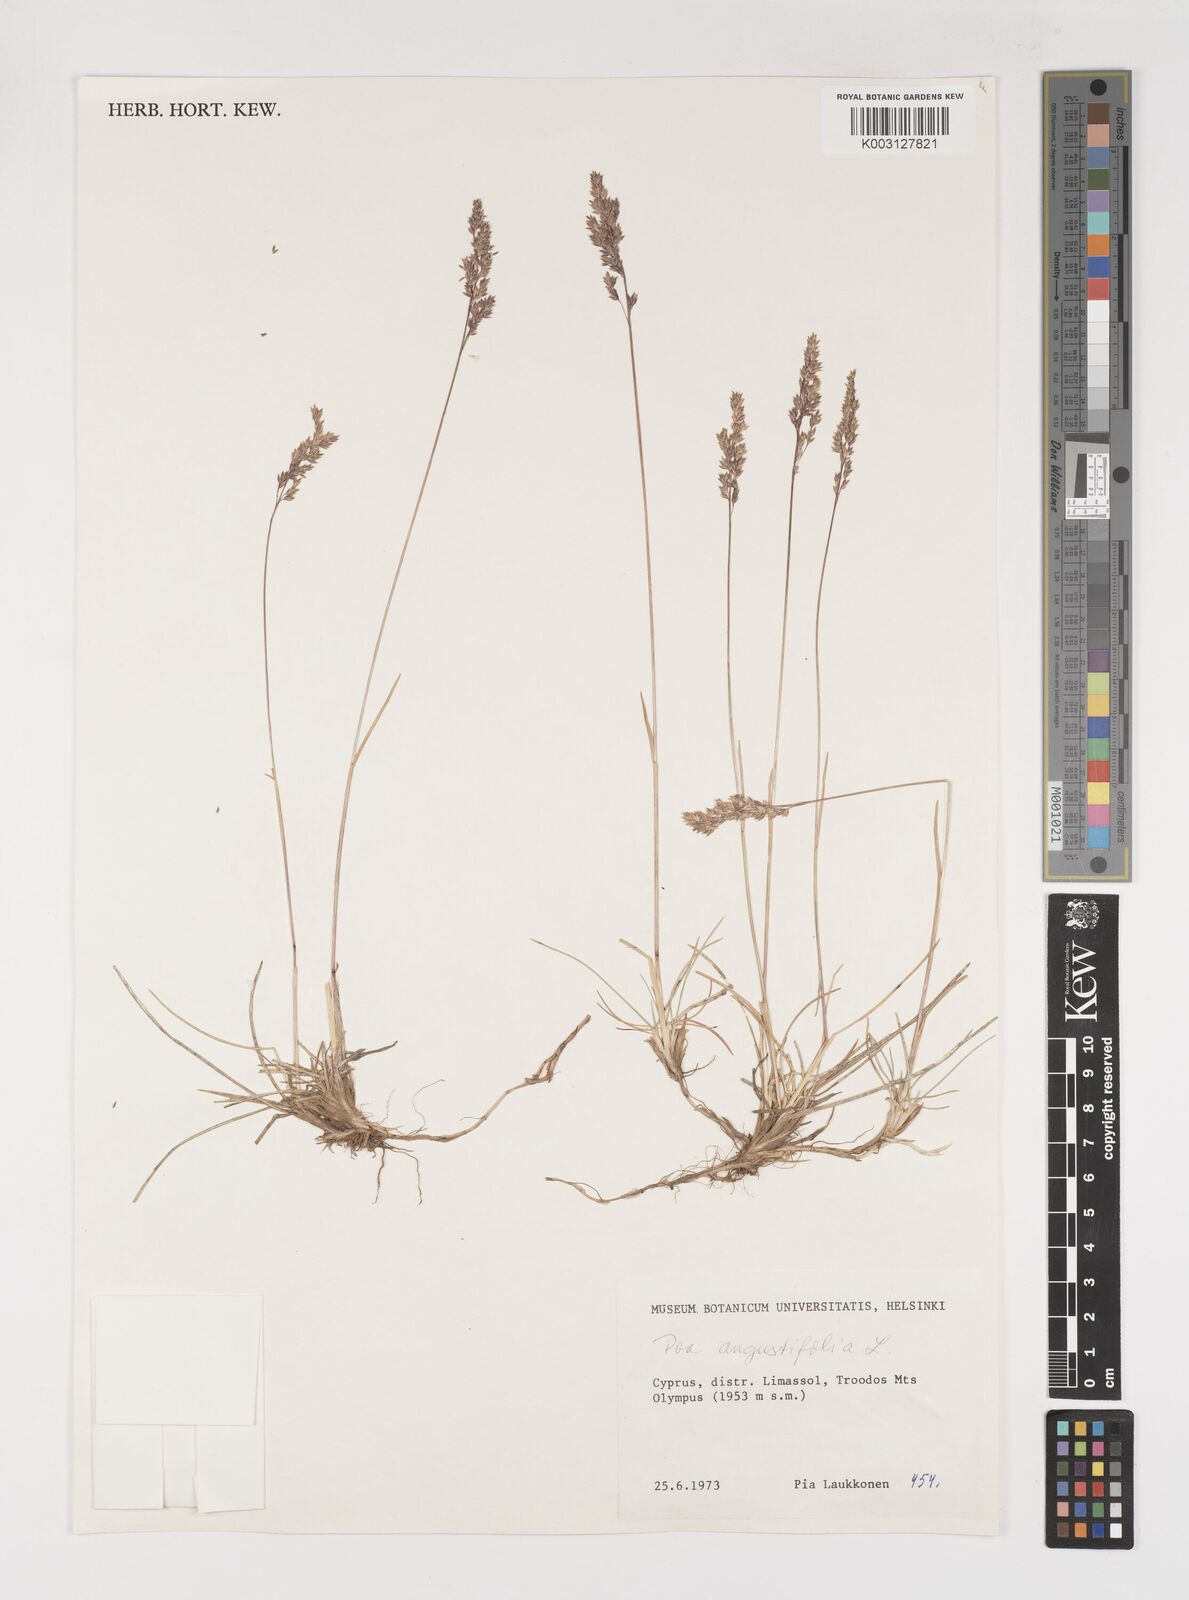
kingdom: Plantae
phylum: Tracheophyta
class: Liliopsida
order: Poales
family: Poaceae
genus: Poa
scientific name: Poa angustifolia
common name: Narrow-leaved meadow-grass
